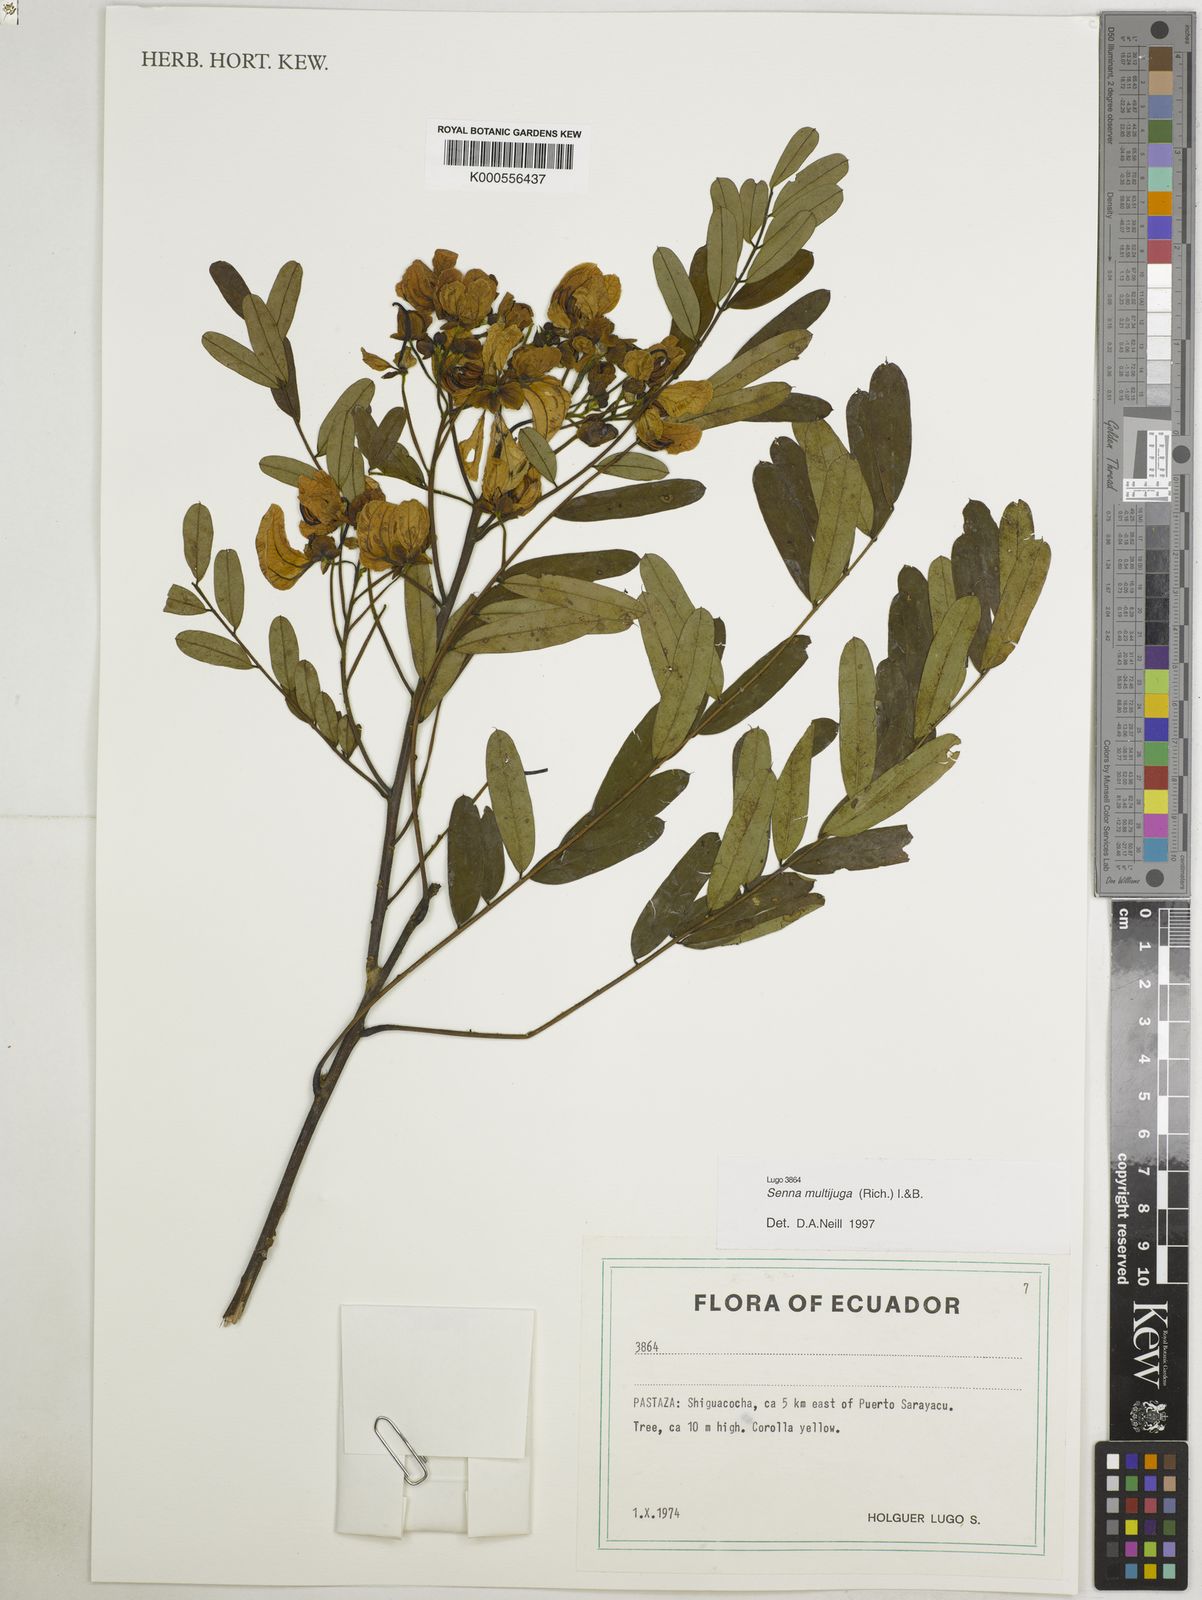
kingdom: Plantae
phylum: Tracheophyta
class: Magnoliopsida
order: Fabales
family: Fabaceae
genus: Senna
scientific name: Senna multijuga
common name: False sicklepod
